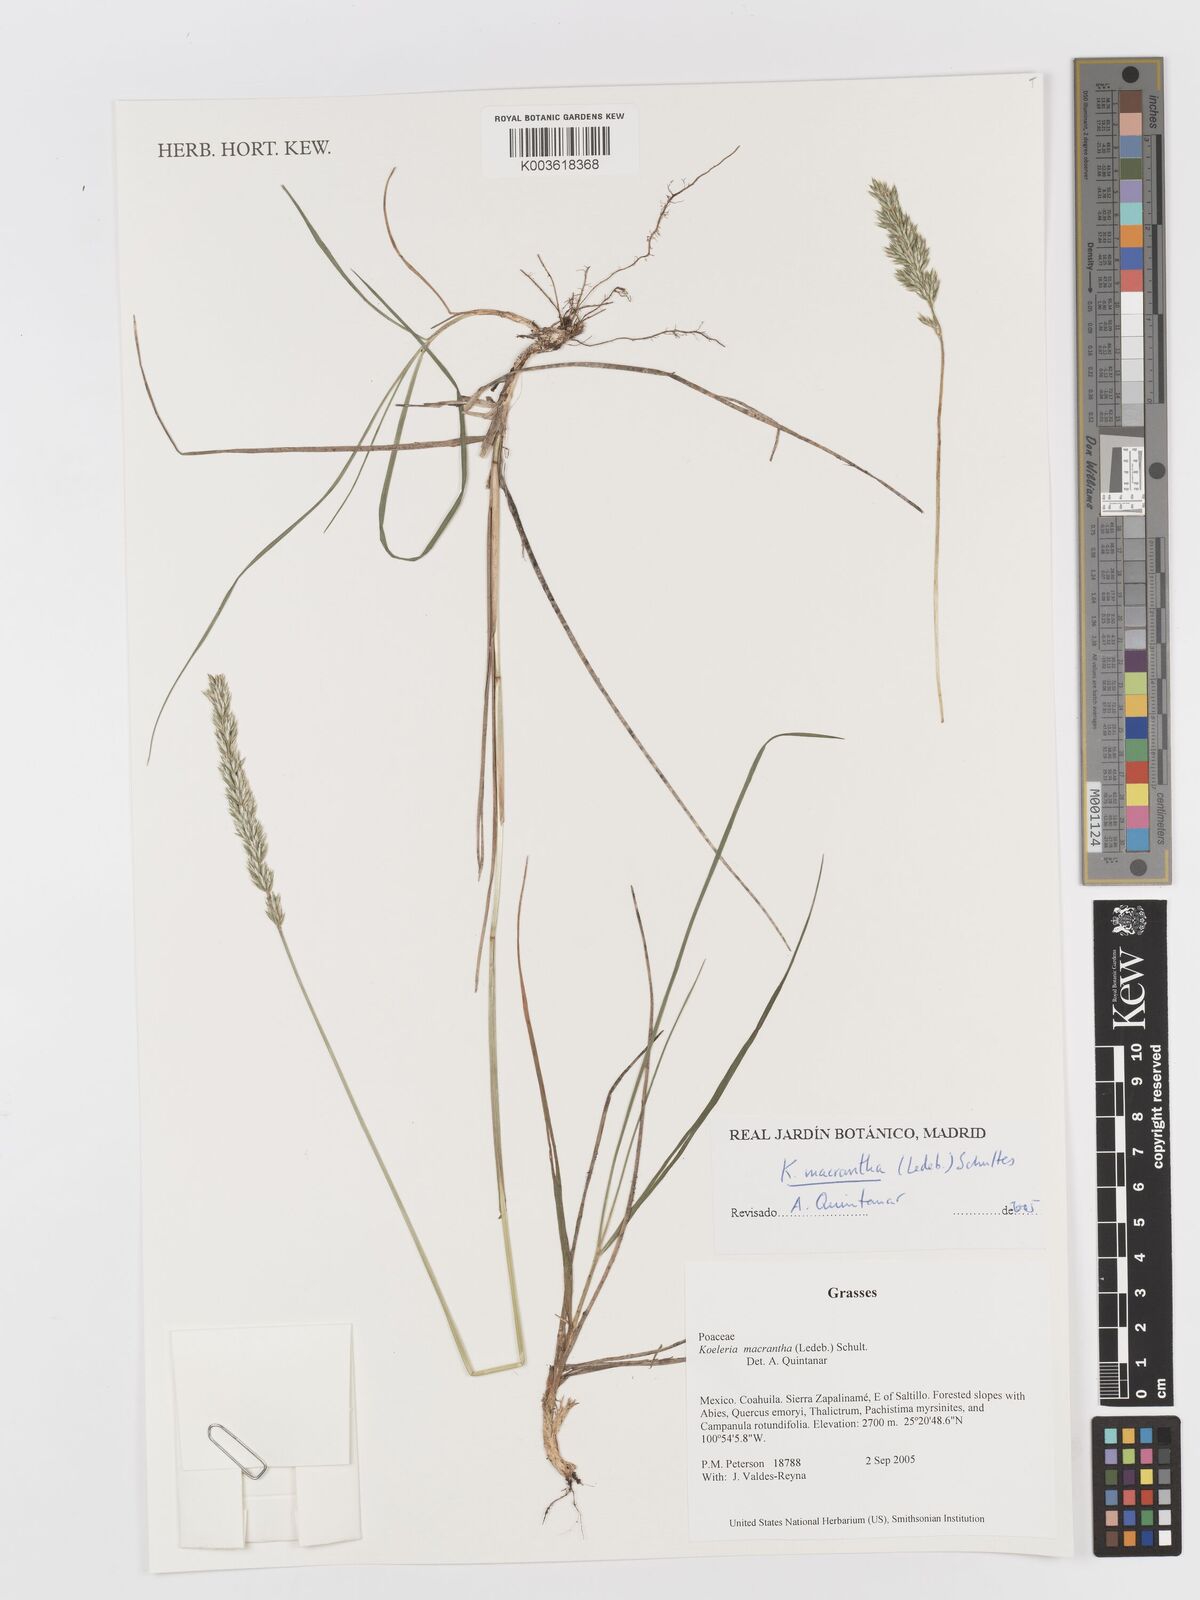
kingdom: Plantae
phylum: Tracheophyta
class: Liliopsida
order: Poales
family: Poaceae
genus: Koeleria
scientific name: Koeleria pyramidata
